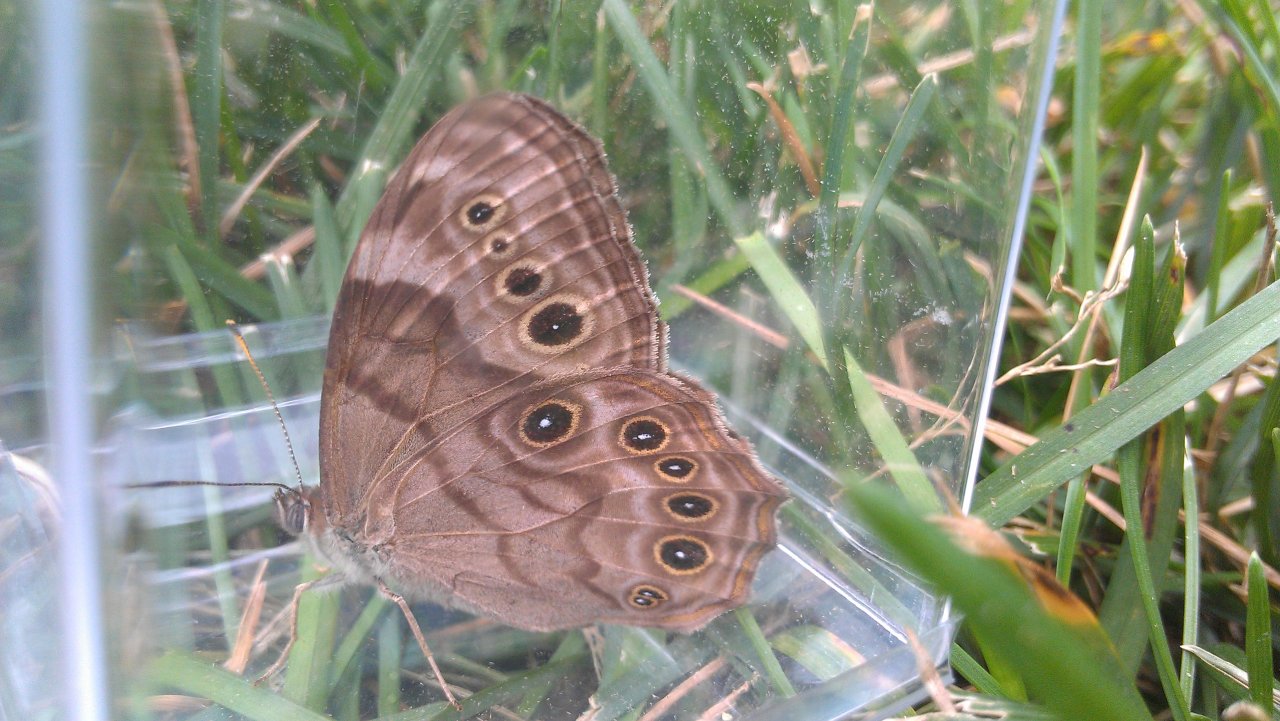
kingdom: Animalia
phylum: Arthropoda
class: Insecta
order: Lepidoptera
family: Nymphalidae
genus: Lethe
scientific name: Lethe anthedon
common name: Northern Pearly-Eye
